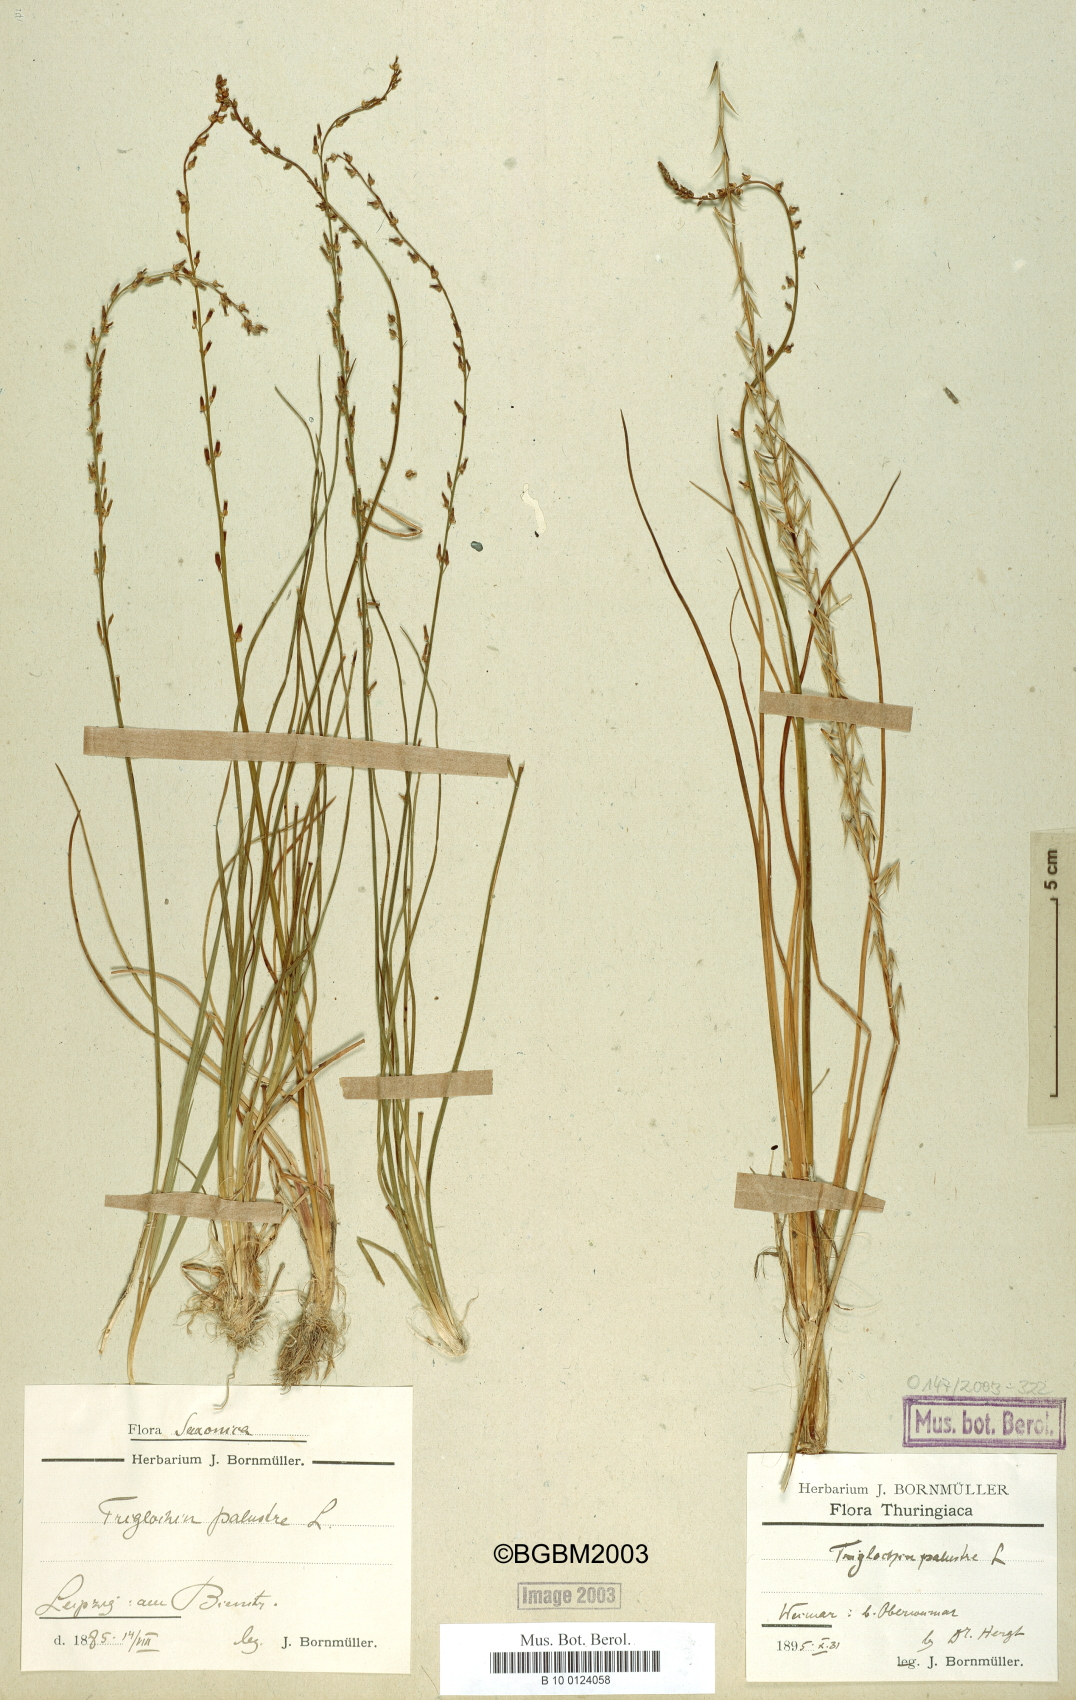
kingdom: Plantae
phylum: Tracheophyta
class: Liliopsida
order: Alismatales
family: Juncaginaceae
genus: Triglochin
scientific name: Triglochin palustris
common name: Marsh arrowgrass
